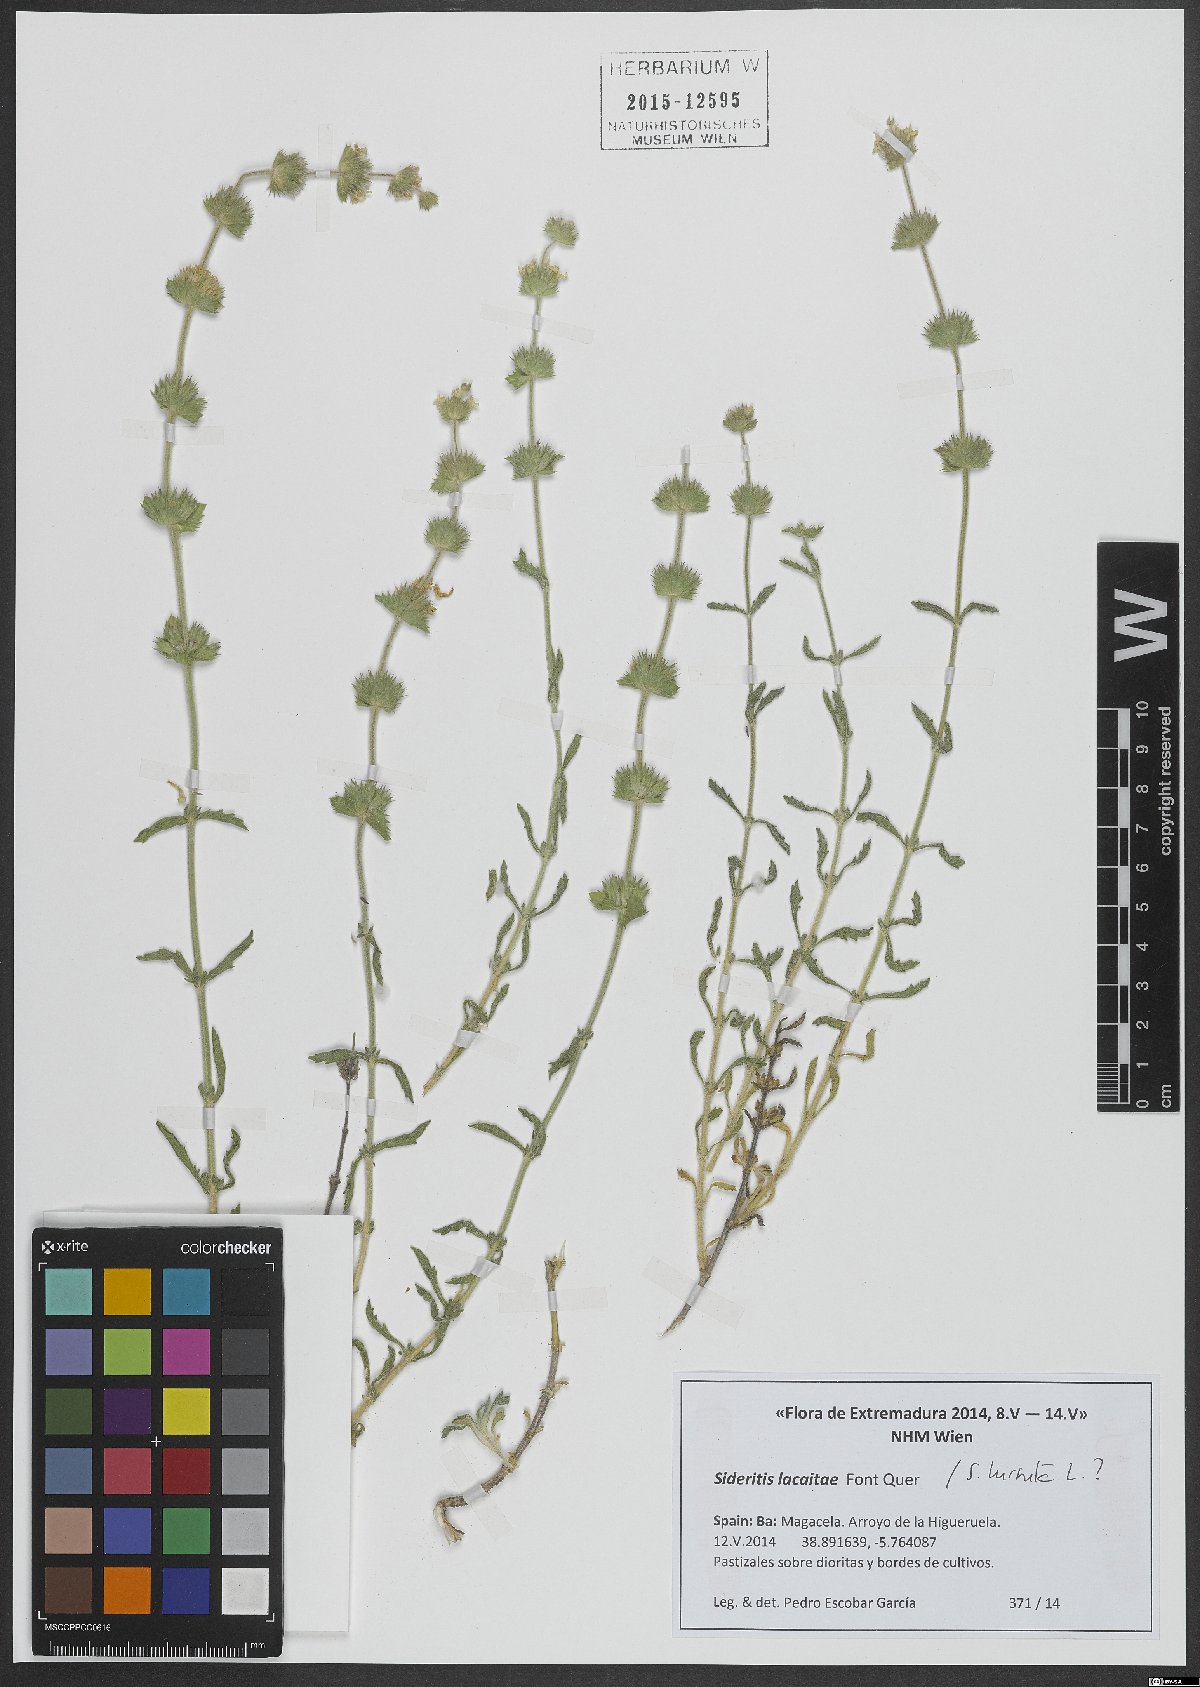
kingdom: Plantae
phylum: Tracheophyta
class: Magnoliopsida
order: Lamiales
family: Lamiaceae
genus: Sideritis
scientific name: Sideritis lacaitae
